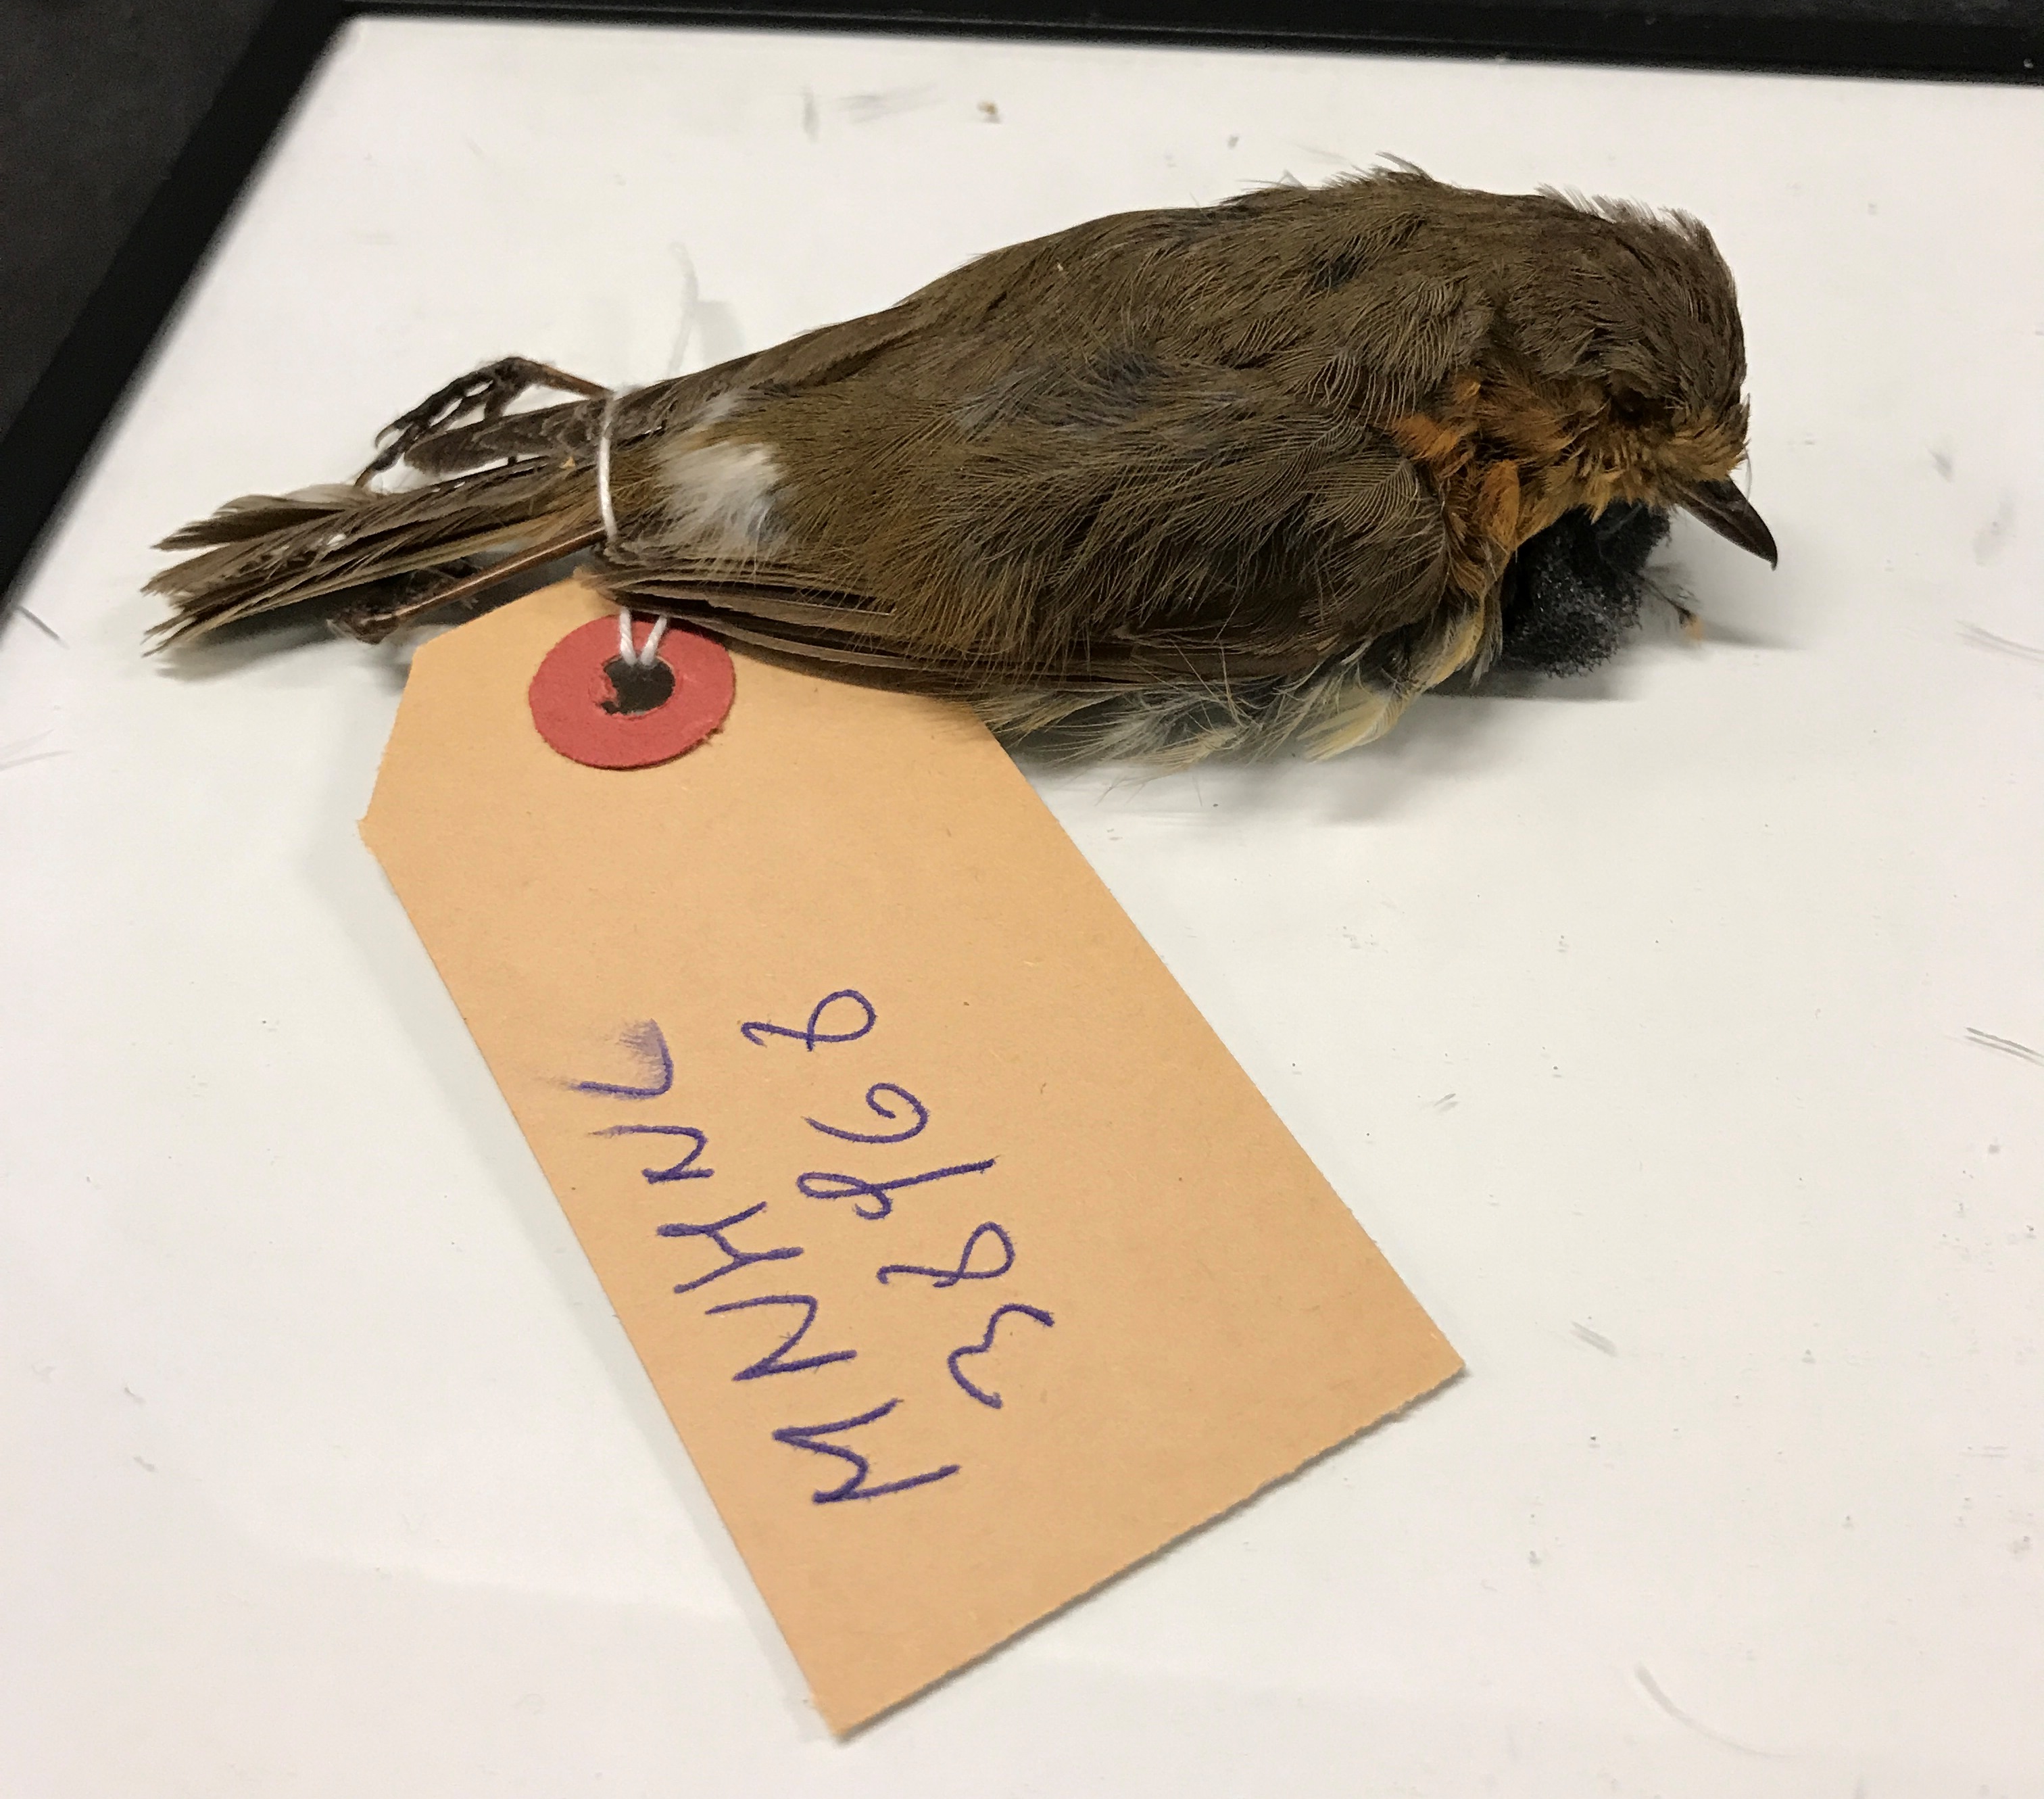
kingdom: Animalia
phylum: Chordata
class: Aves
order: Passeriformes
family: Muscicapidae
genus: Erithacus
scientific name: Erithacus rubecula
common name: European robin
